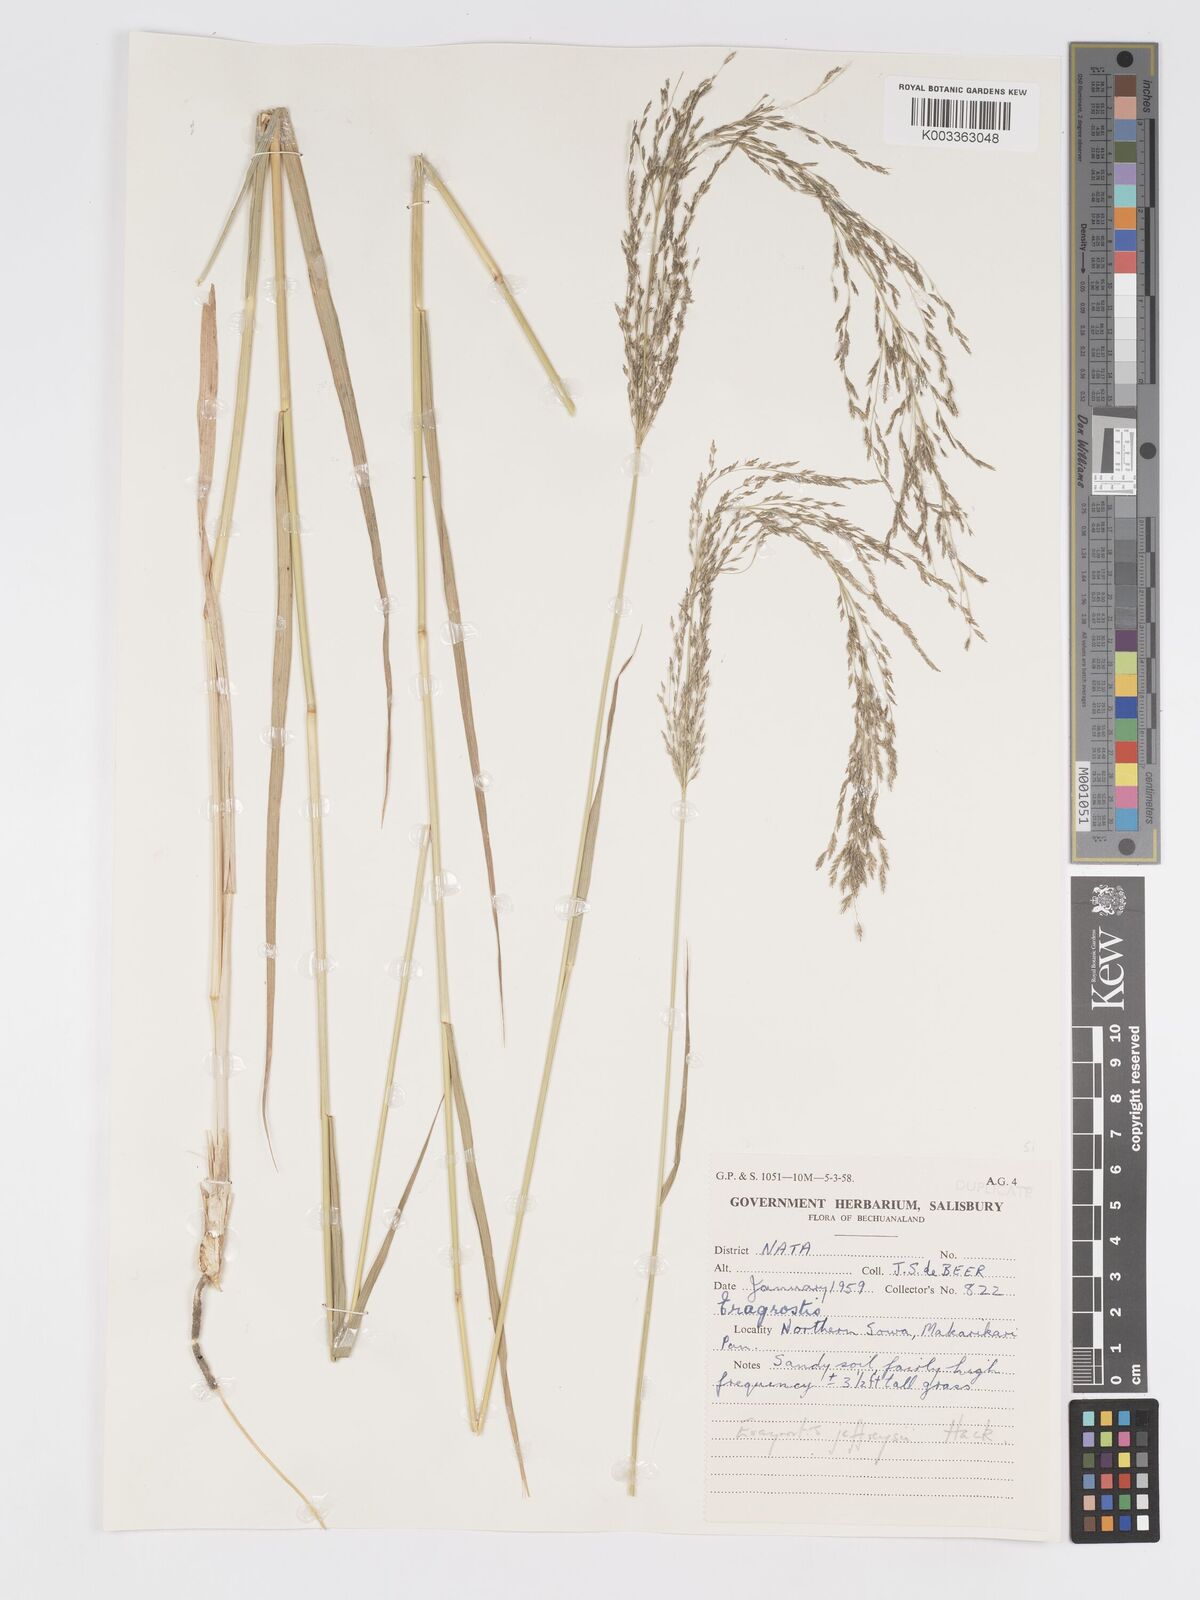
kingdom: Plantae
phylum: Tracheophyta
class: Liliopsida
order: Poales
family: Poaceae
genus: Eragrostis
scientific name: Eragrostis cylindriflora
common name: Cylinderflower lovegrass
